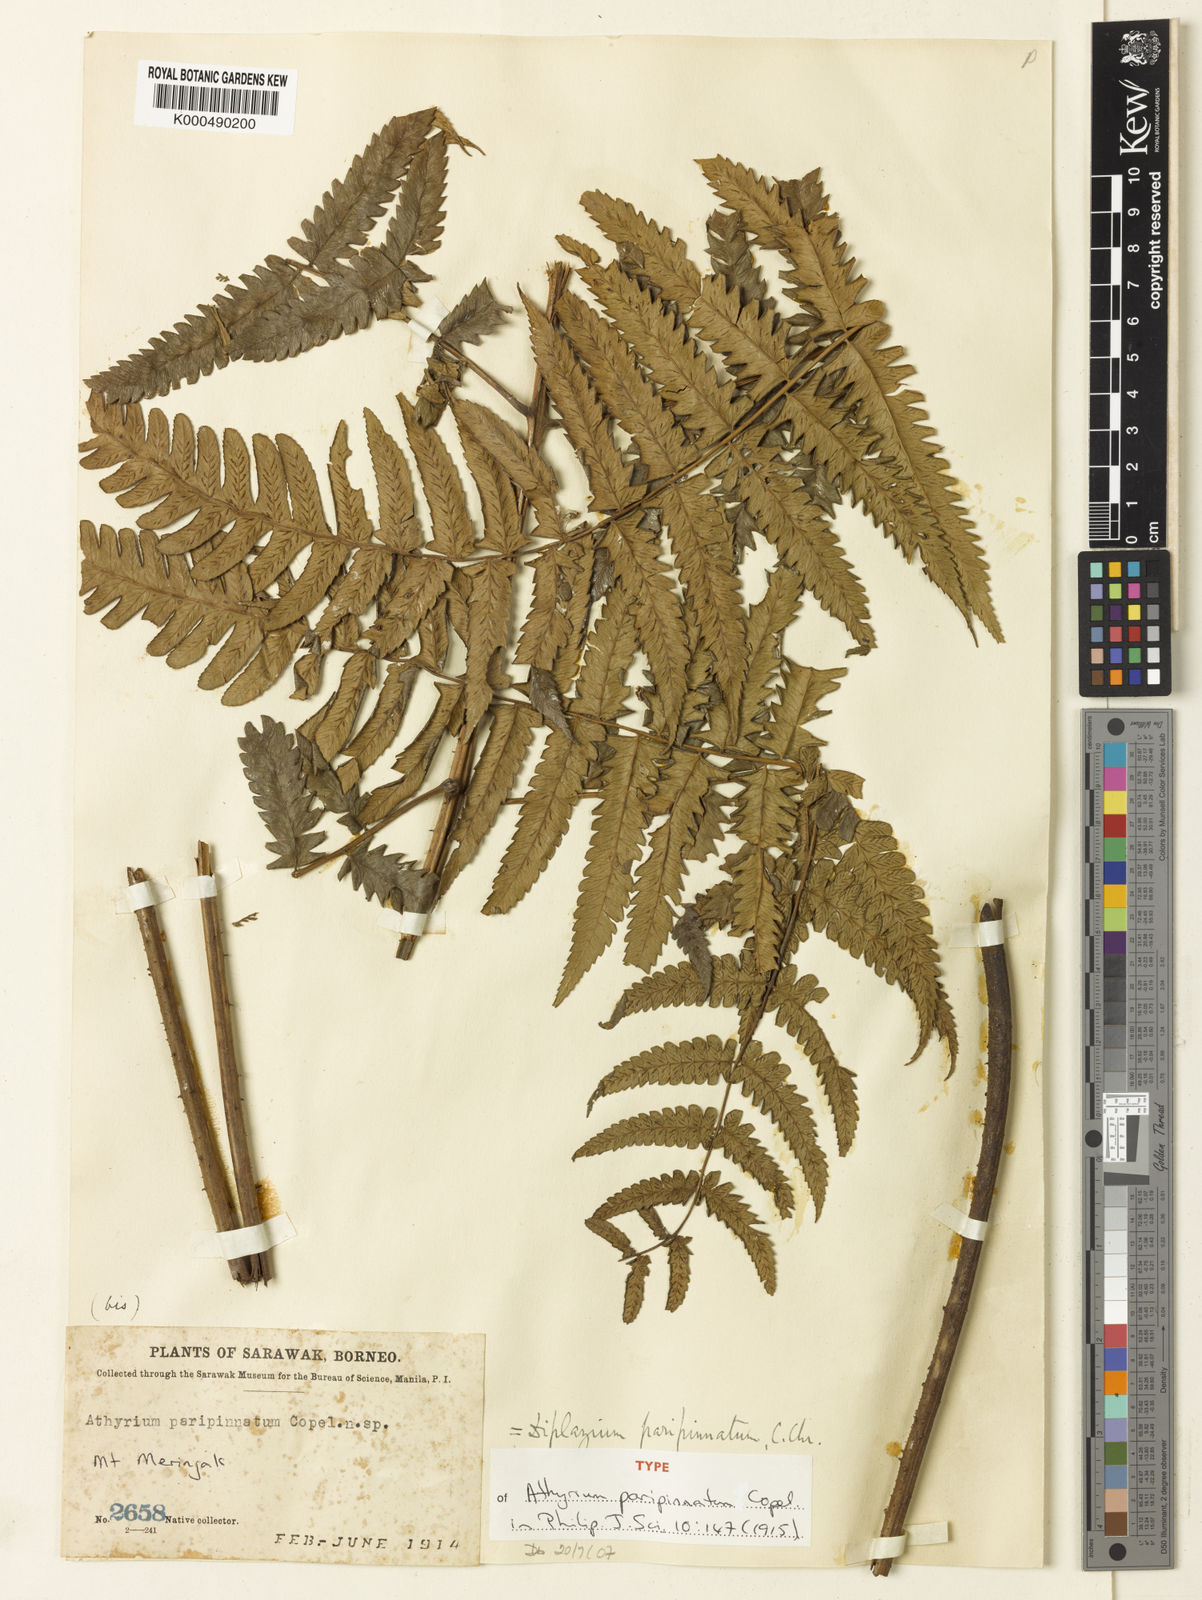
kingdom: Plantae
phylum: Tracheophyta
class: Polypodiopsida
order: Polypodiales
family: Athyriaceae
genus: Diplazium
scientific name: Diplazium hewittii
